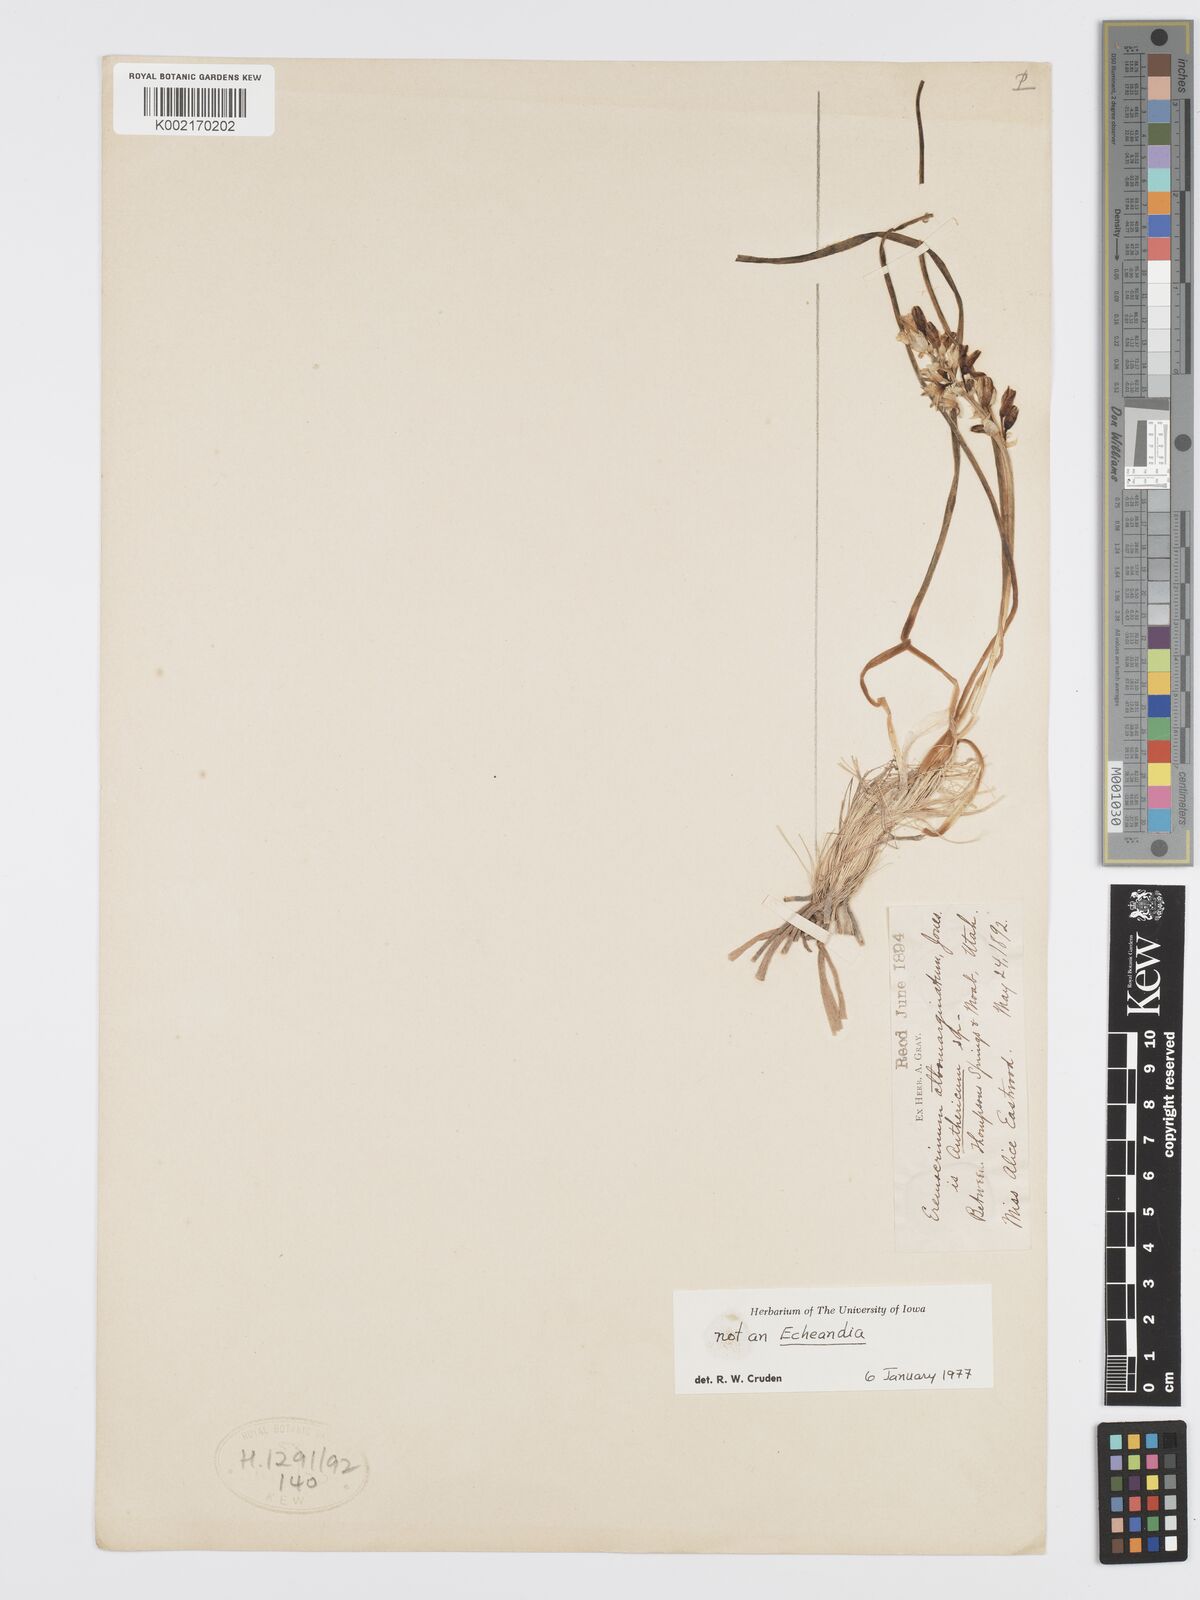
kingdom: Plantae
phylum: Tracheophyta
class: Liliopsida
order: Asparagales
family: Asparagaceae
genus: Eremocrinum
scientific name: Eremocrinum albomarginatum
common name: Sand-lily
